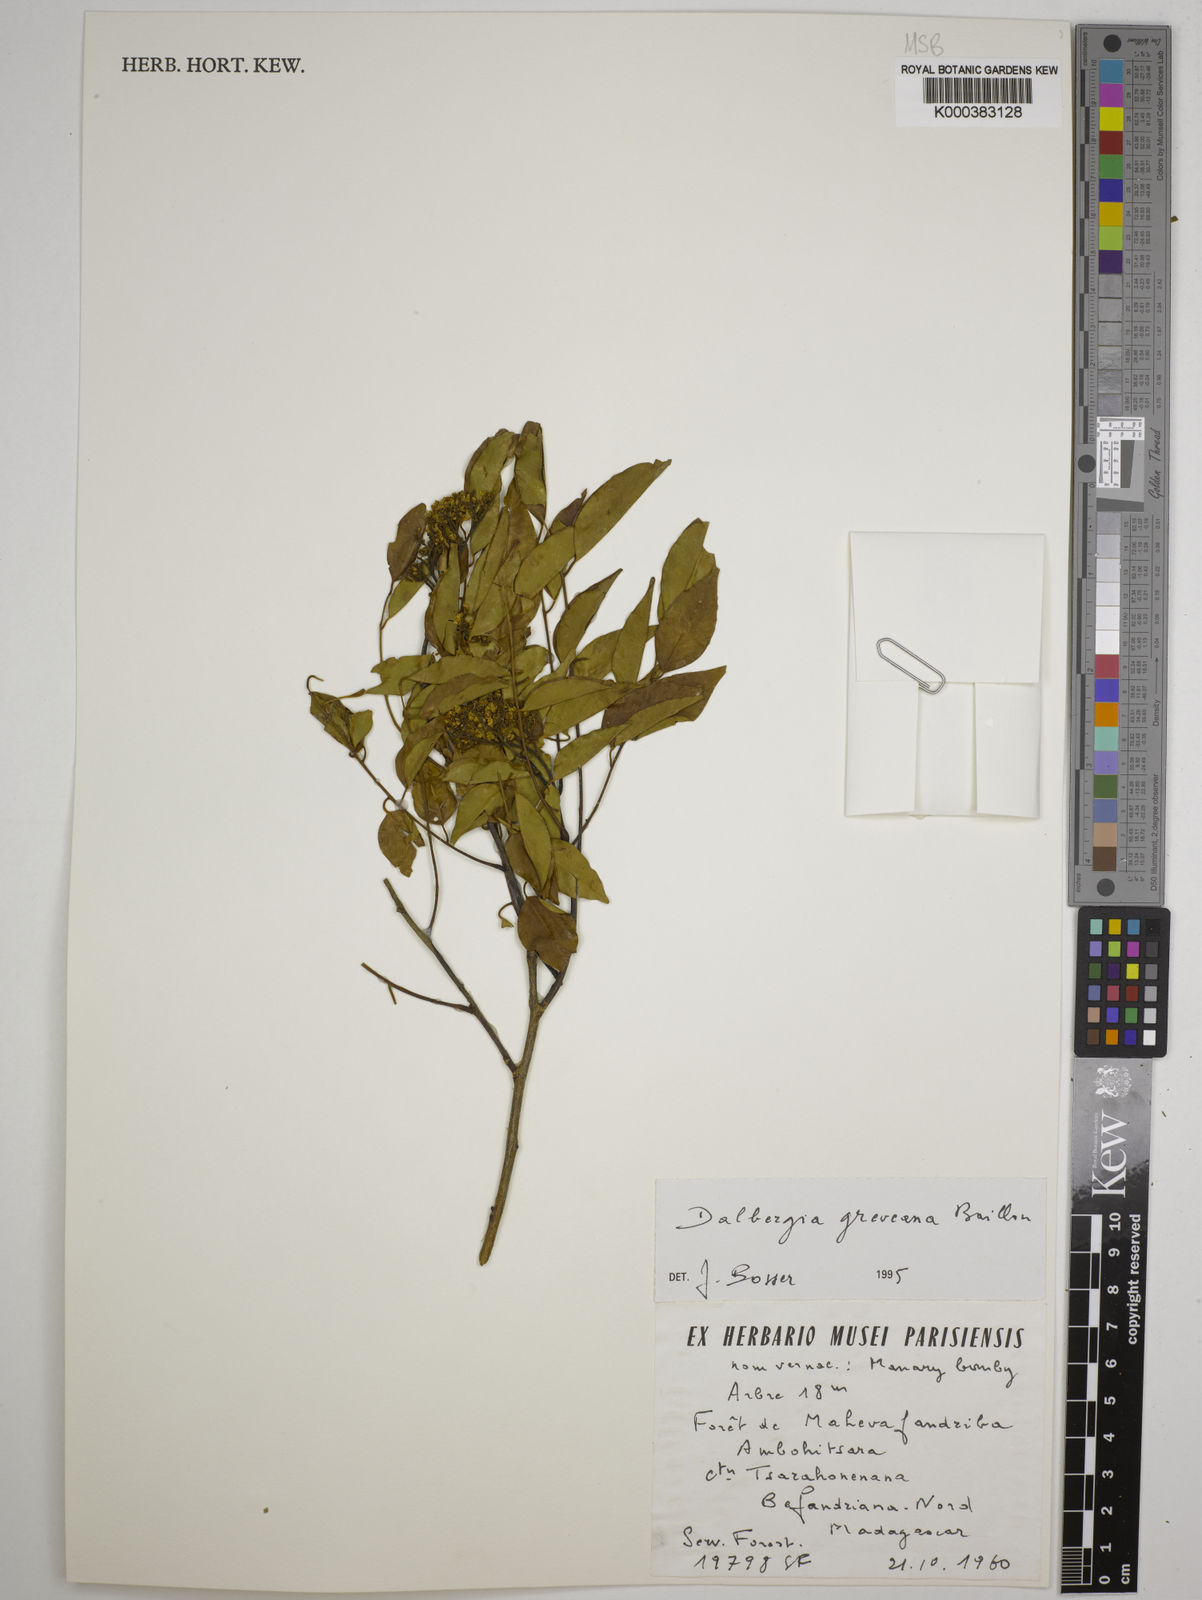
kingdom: Plantae
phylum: Tracheophyta
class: Magnoliopsida
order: Fabales
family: Fabaceae
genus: Dalbergia
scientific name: Dalbergia greveana
